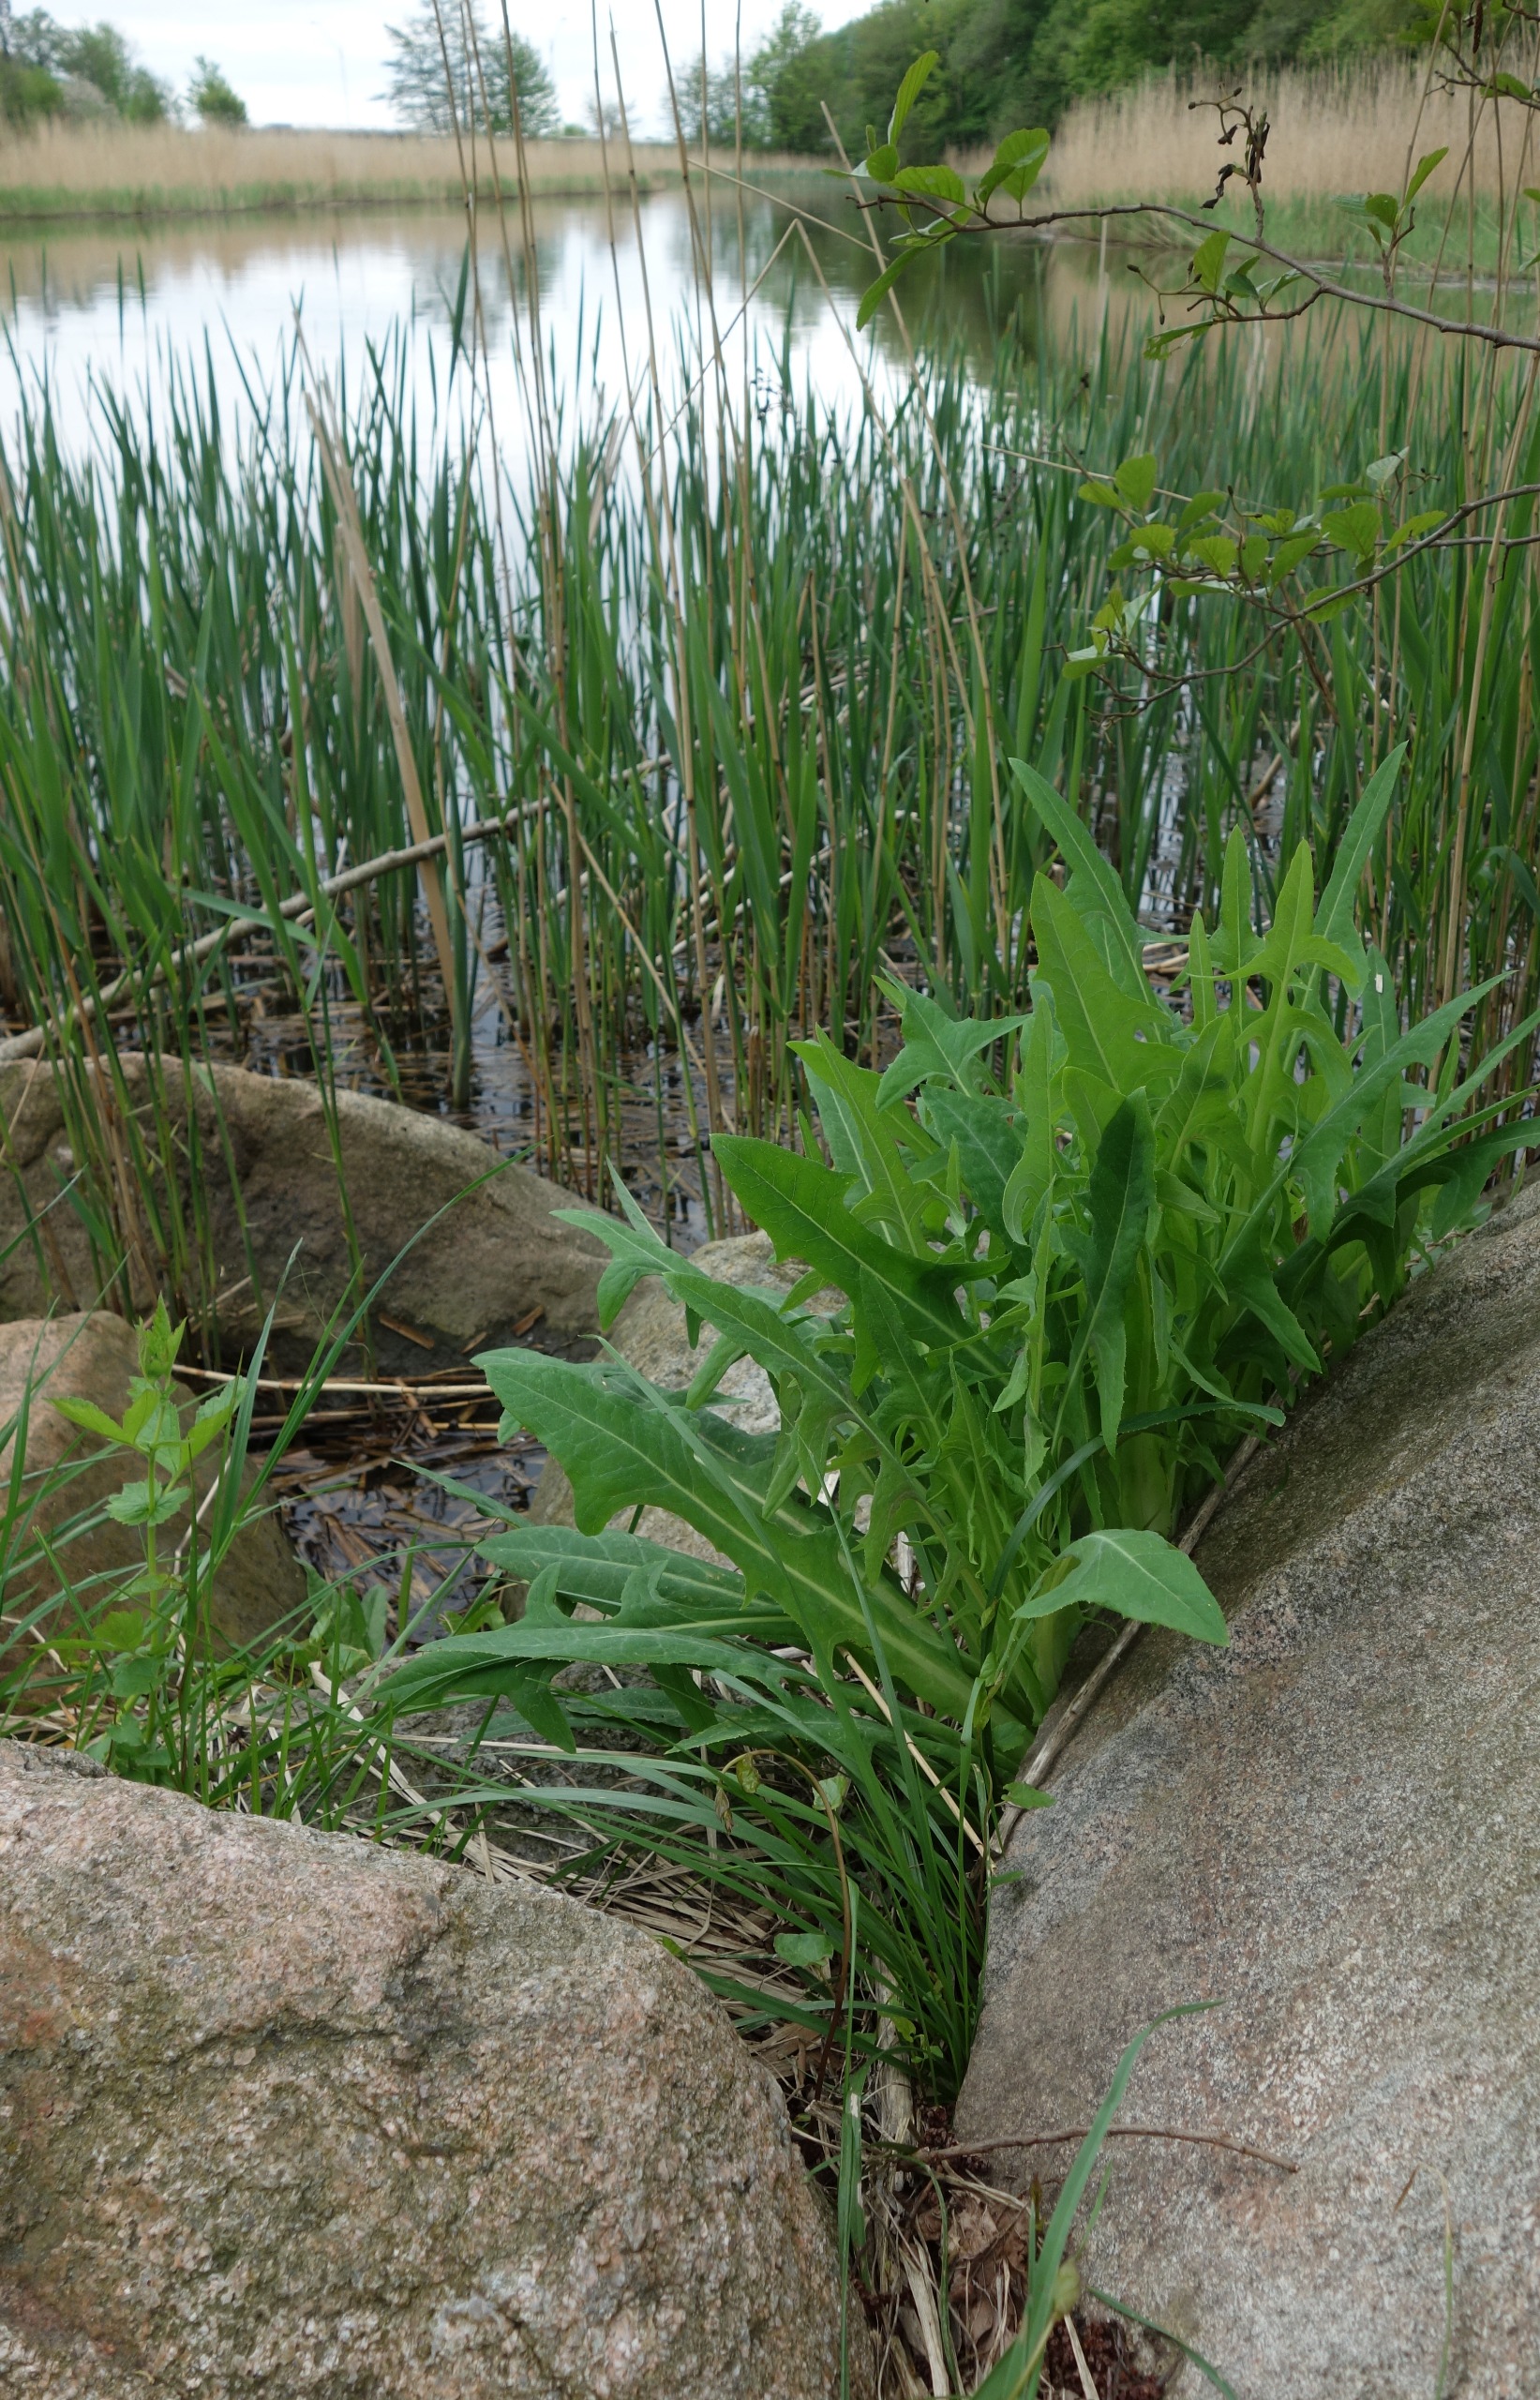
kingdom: Plantae
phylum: Tracheophyta
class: Magnoliopsida
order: Asterales
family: Asteraceae
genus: Sonchus
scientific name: Sonchus palustris
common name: Kær-svinemælk
